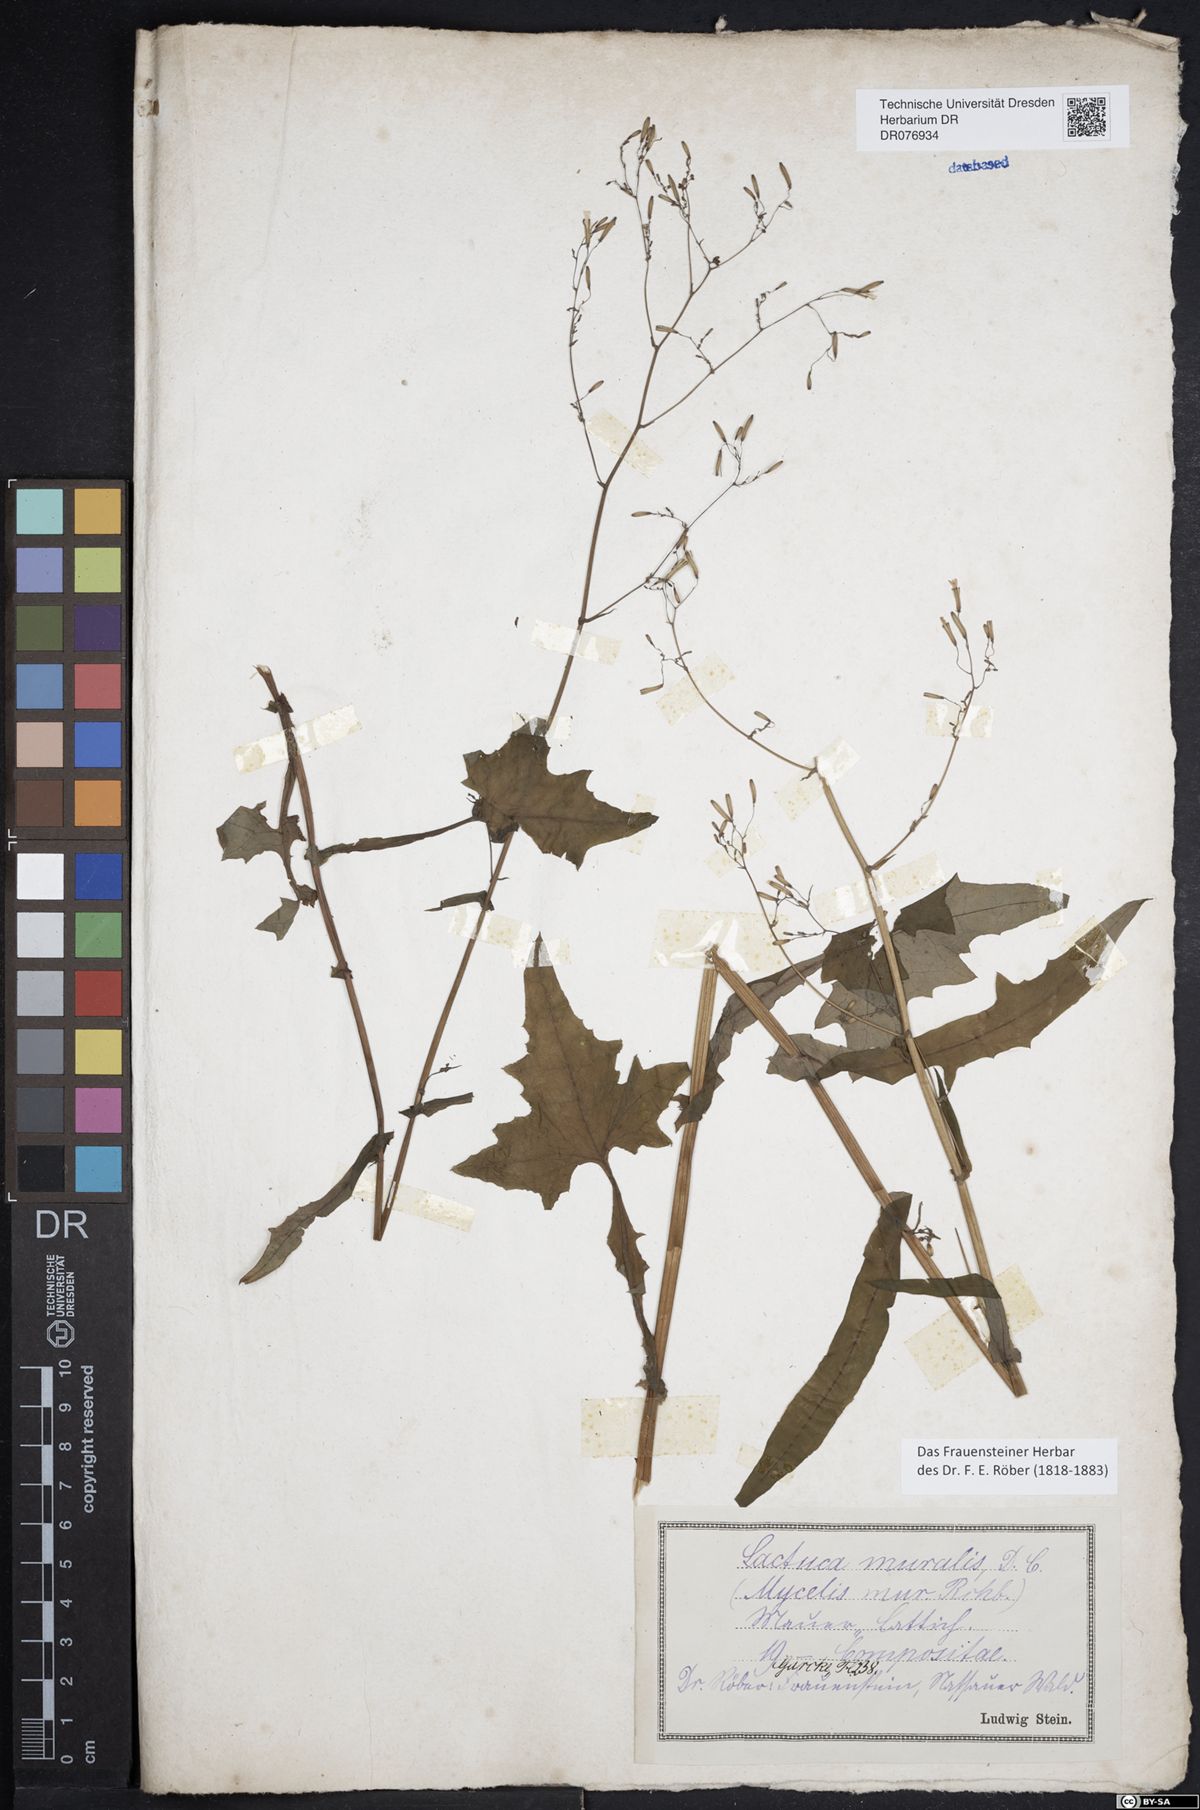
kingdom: Plantae
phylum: Tracheophyta
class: Magnoliopsida
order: Asterales
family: Asteraceae
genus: Mycelis
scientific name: Mycelis muralis
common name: Wall lettuce
